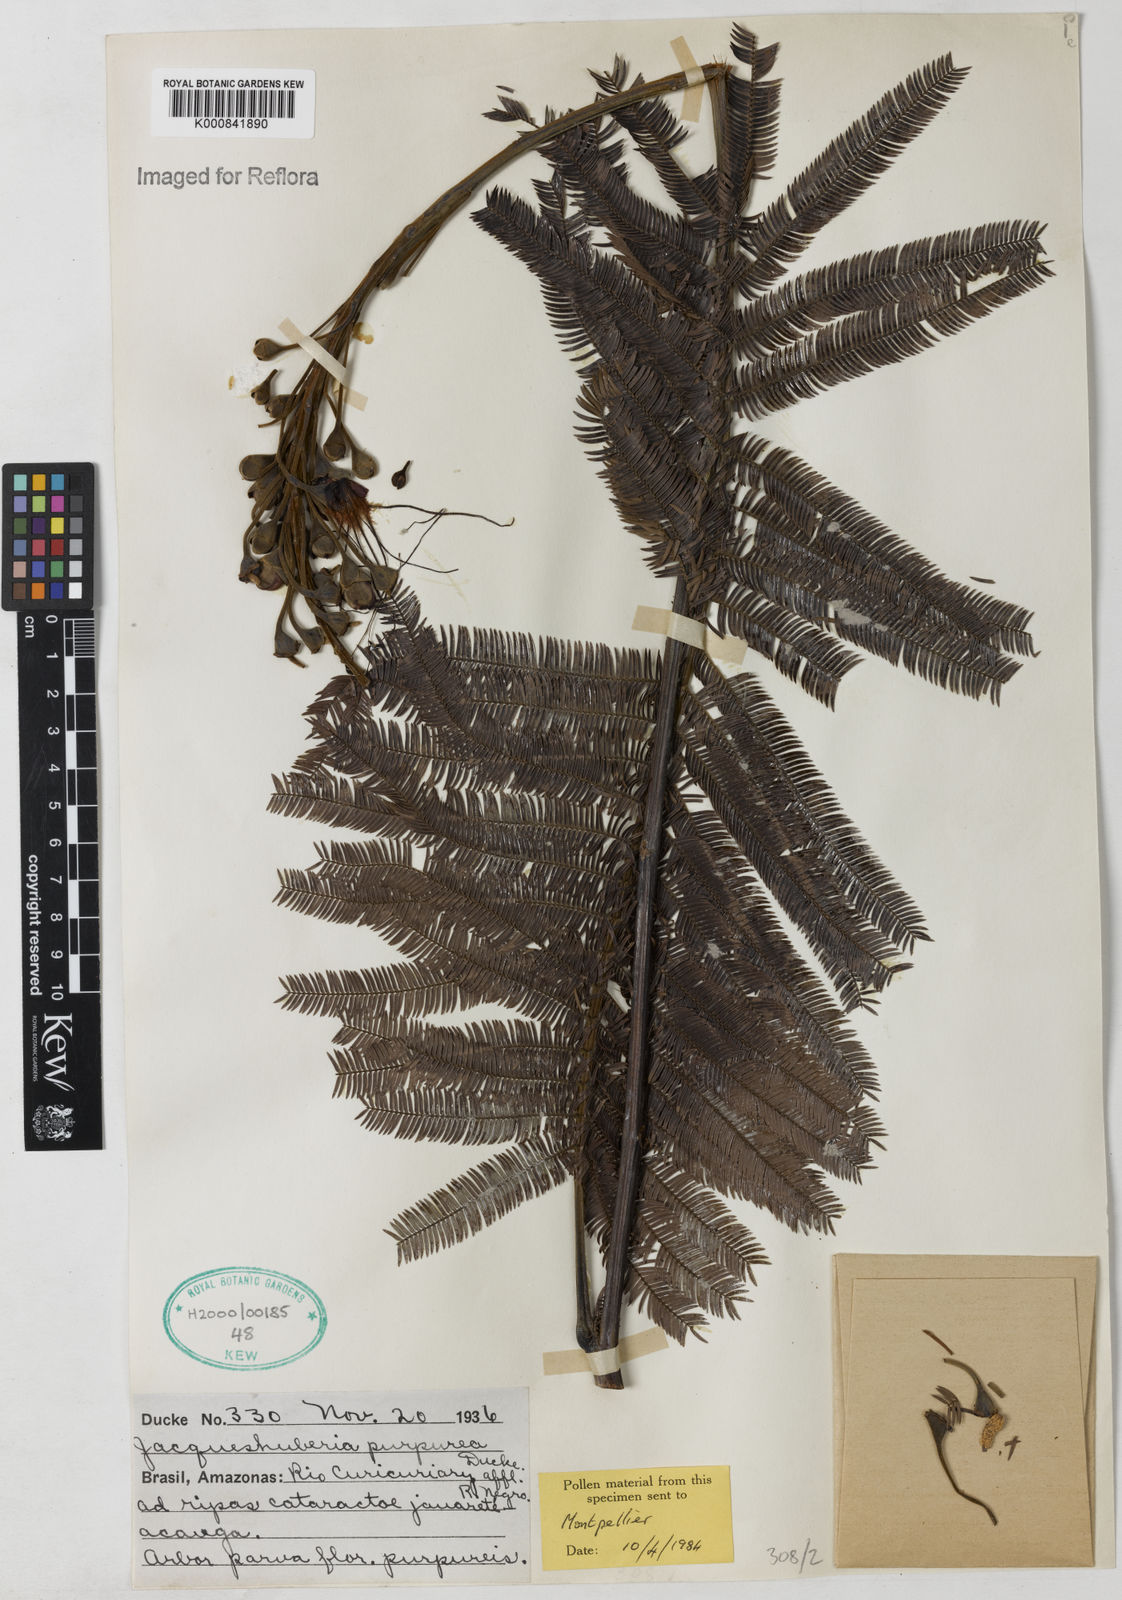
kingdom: Plantae
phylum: Tracheophyta
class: Magnoliopsida
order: Fabales
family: Fabaceae
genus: Jacqueshuberia
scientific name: Jacqueshuberia purpurea
